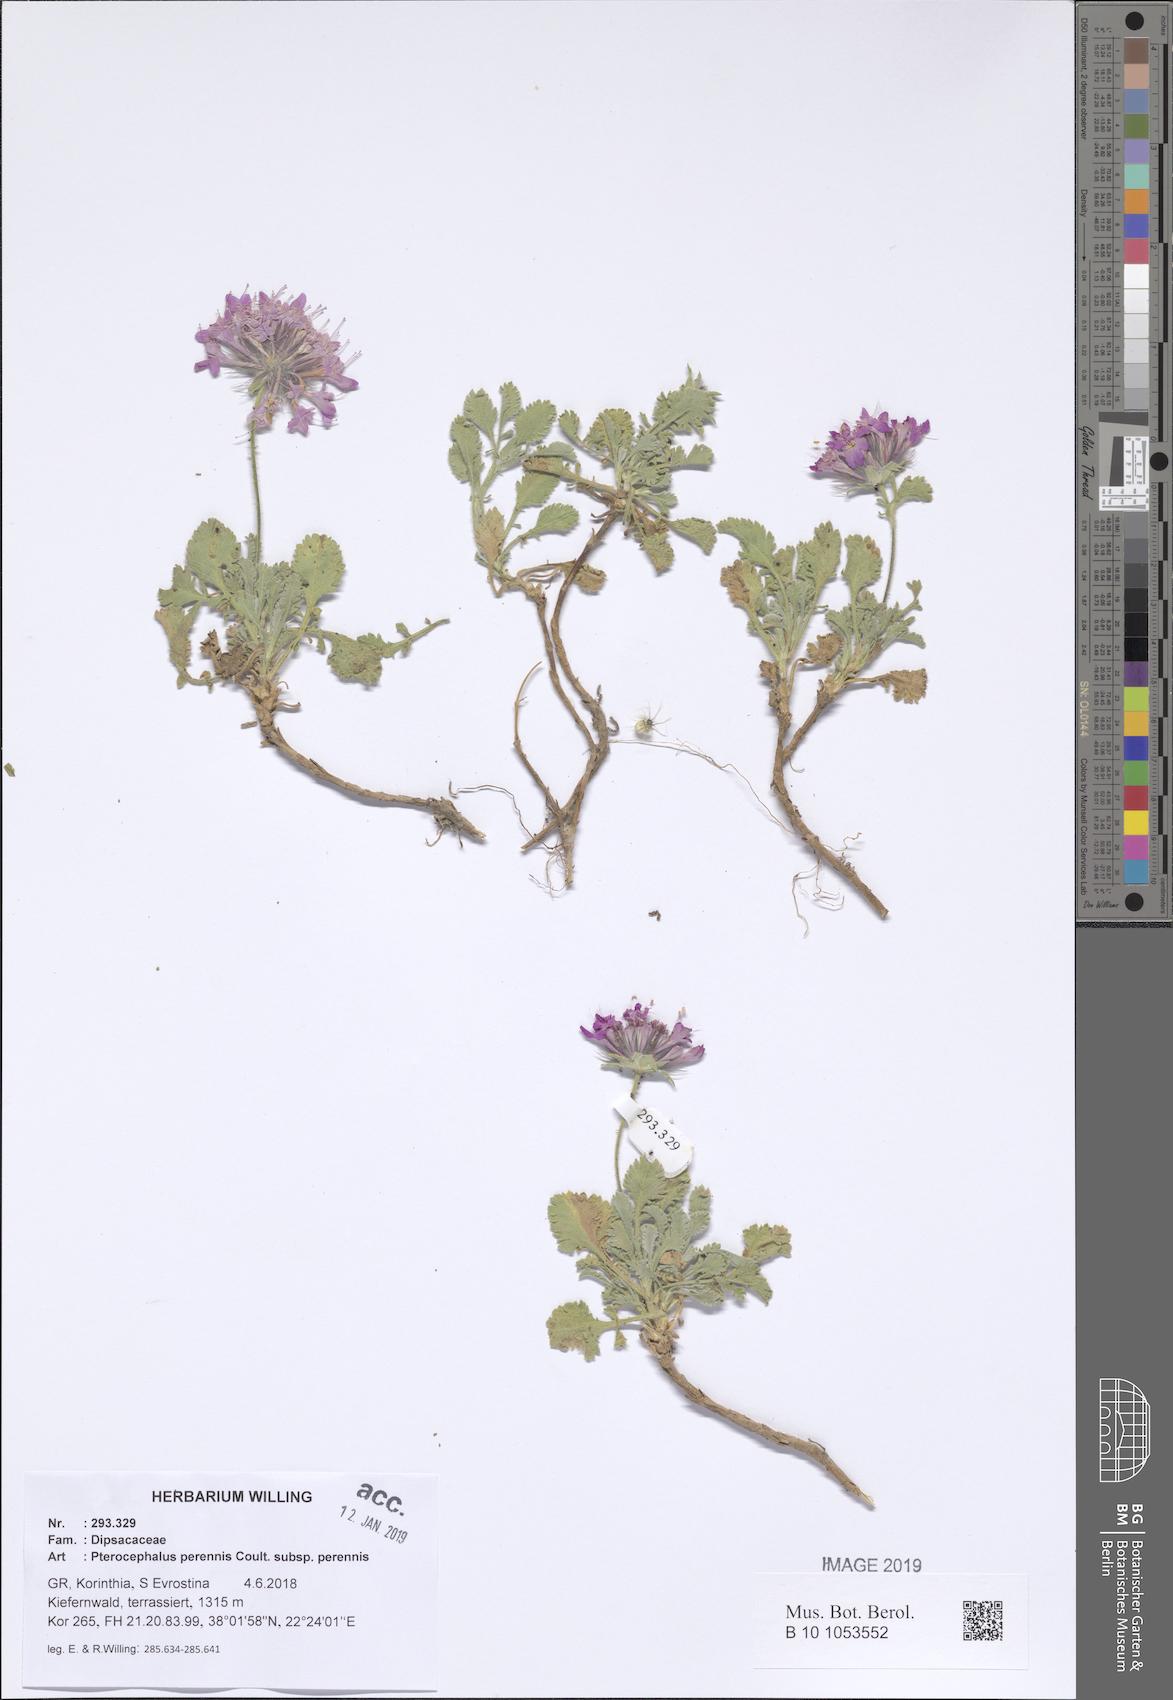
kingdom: Plantae
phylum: Tracheophyta
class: Magnoliopsida
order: Dipsacales
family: Caprifoliaceae
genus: Pterocephalus
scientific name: Pterocephalus perennis
